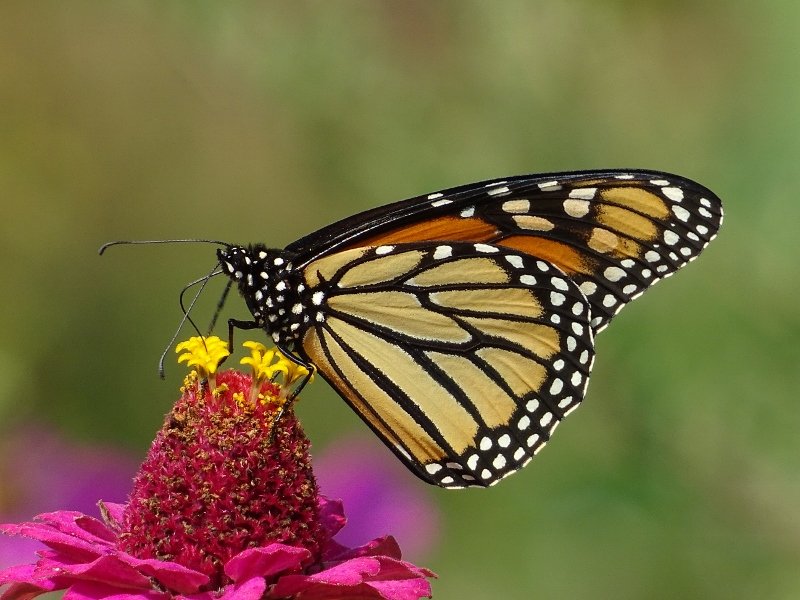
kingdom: Animalia
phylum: Arthropoda
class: Insecta
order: Lepidoptera
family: Nymphalidae
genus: Danaus
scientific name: Danaus plexippus
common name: Monarch
